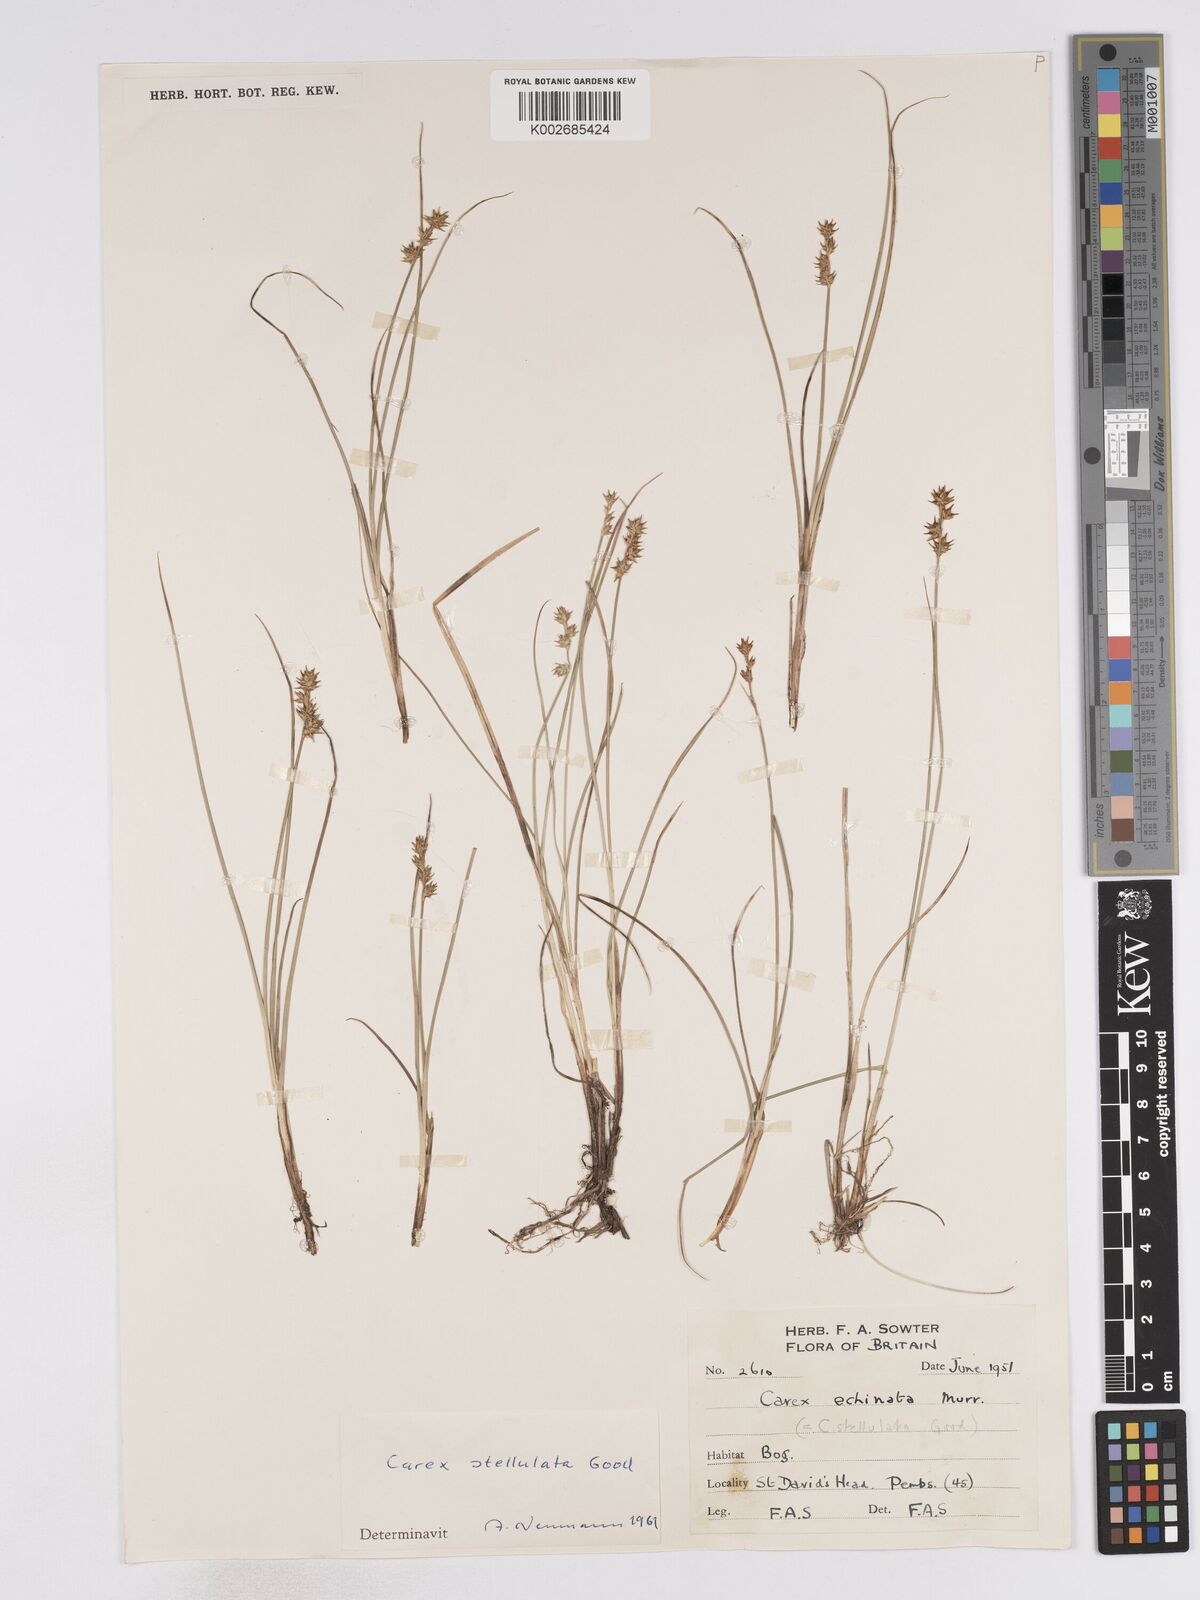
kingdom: Plantae
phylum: Tracheophyta
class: Liliopsida
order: Poales
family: Cyperaceae
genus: Carex
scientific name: Carex echinata
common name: Star sedge
